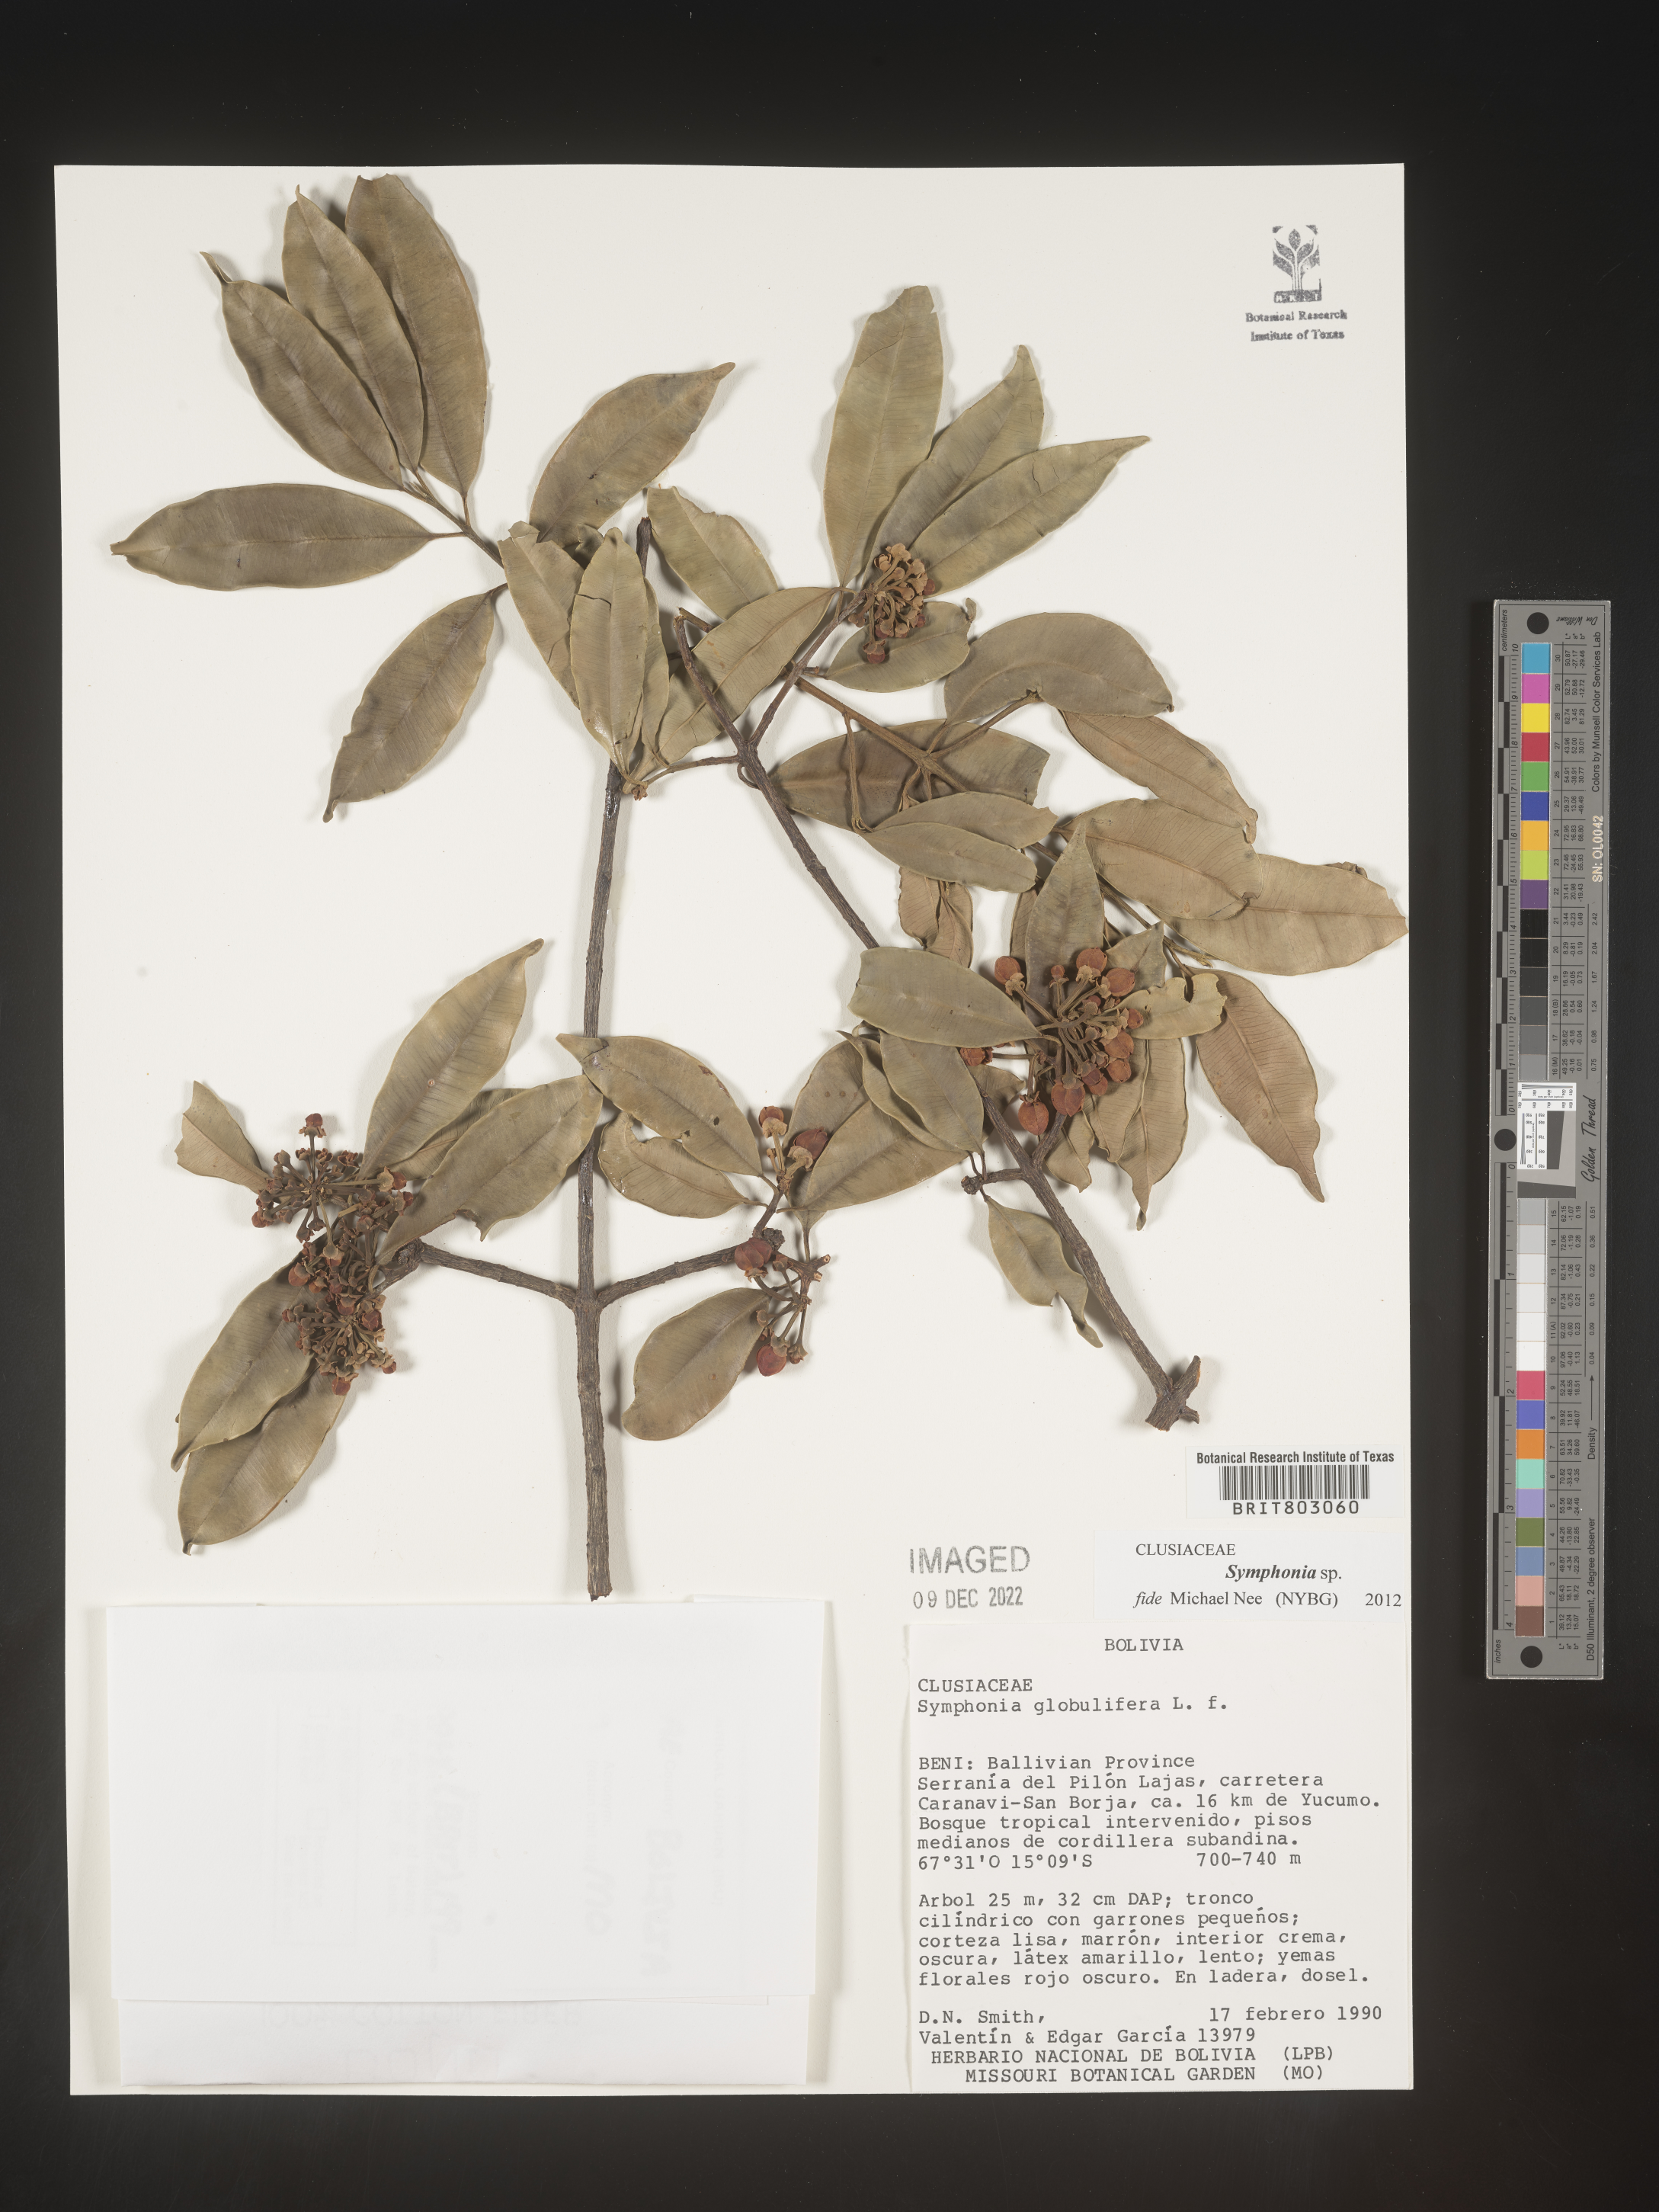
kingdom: Plantae
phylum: Tracheophyta
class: Magnoliopsida
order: Malpighiales
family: Clusiaceae
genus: Symphonia
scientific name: Symphonia
